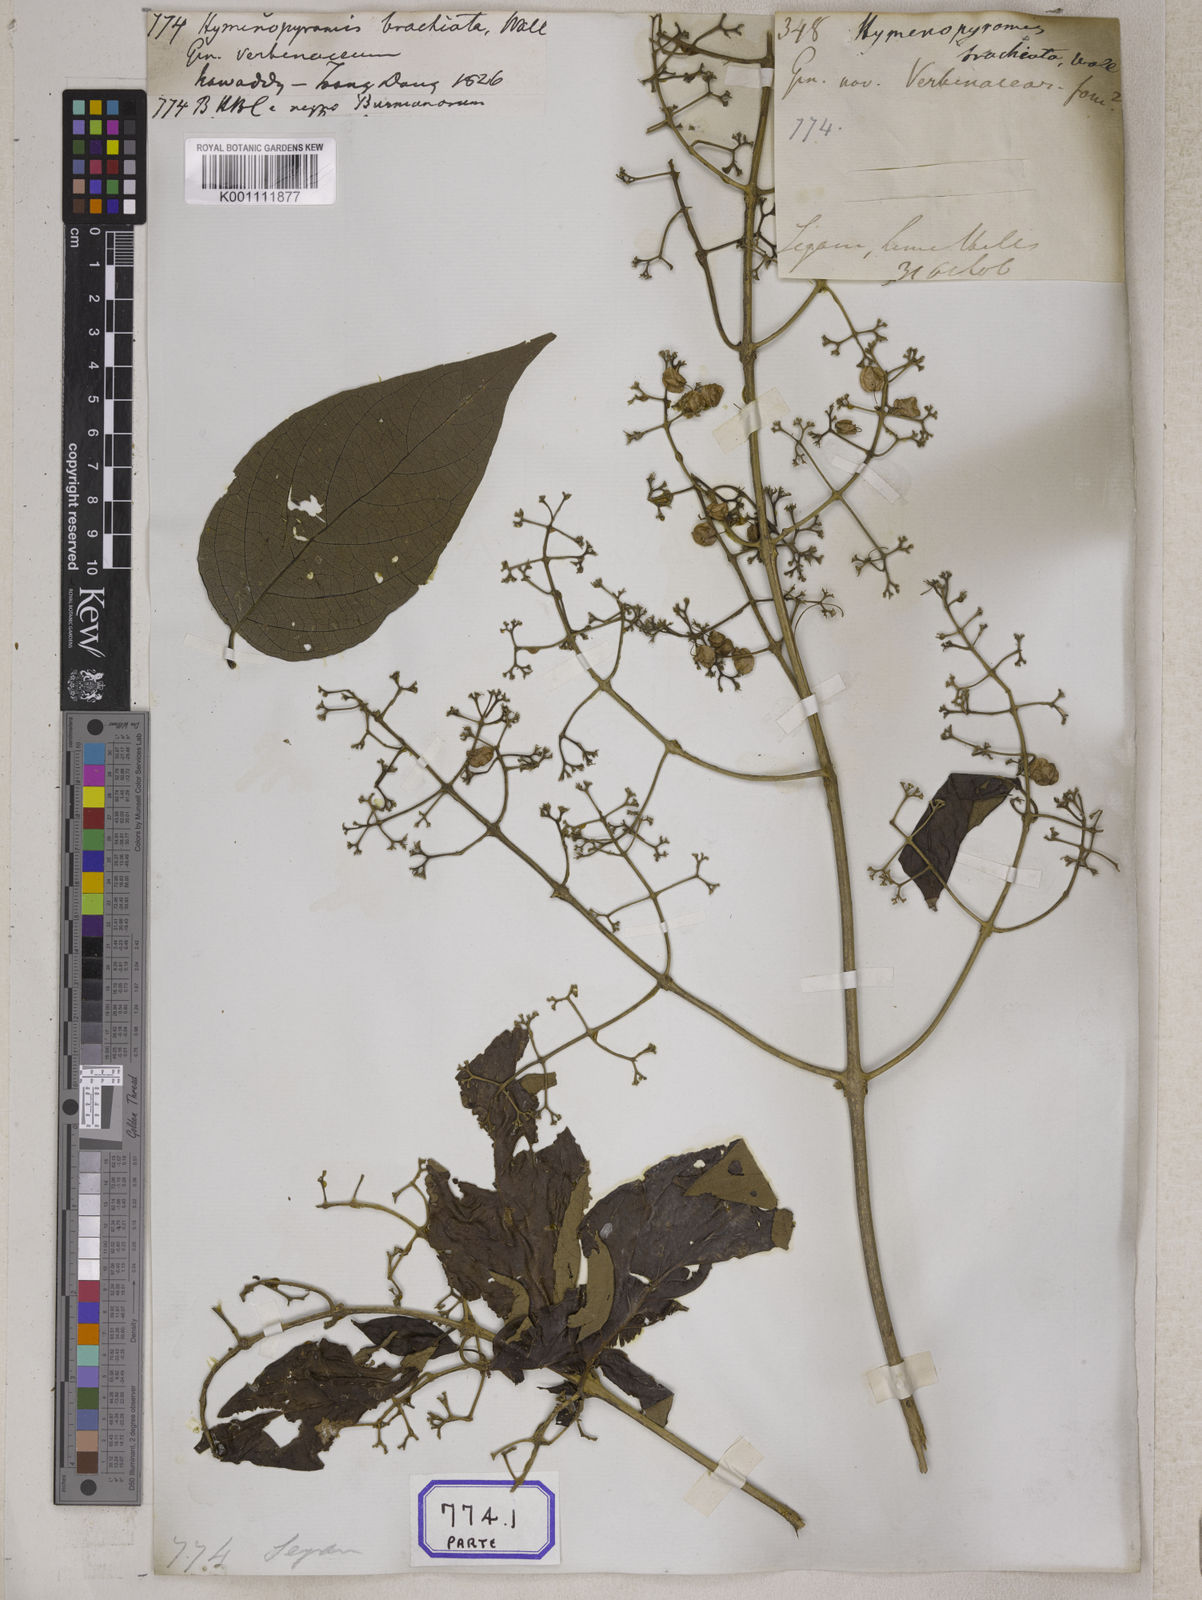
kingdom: Plantae
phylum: Tracheophyta
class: Magnoliopsida
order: Lamiales
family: Lamiaceae
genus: Hymenopyramis
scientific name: Hymenopyramis
